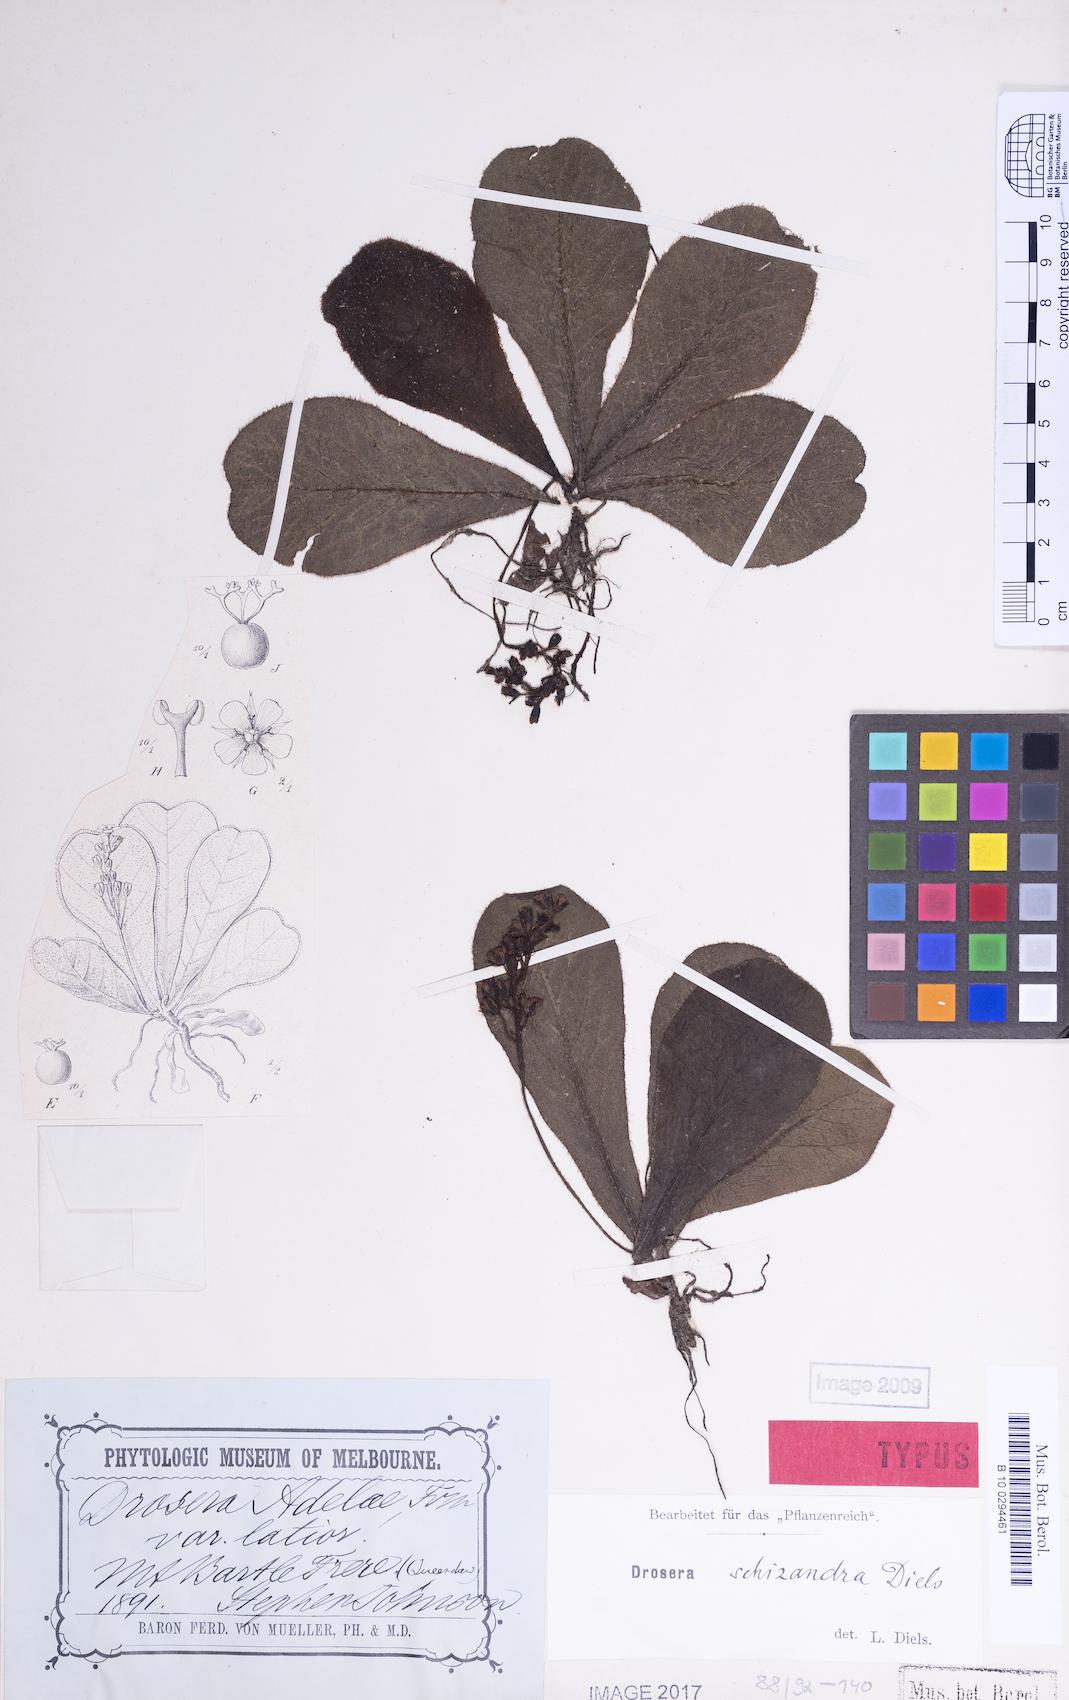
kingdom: Plantae
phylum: Tracheophyta
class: Magnoliopsida
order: Caryophyllales
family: Droseraceae
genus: Drosera
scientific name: Drosera schizandra
